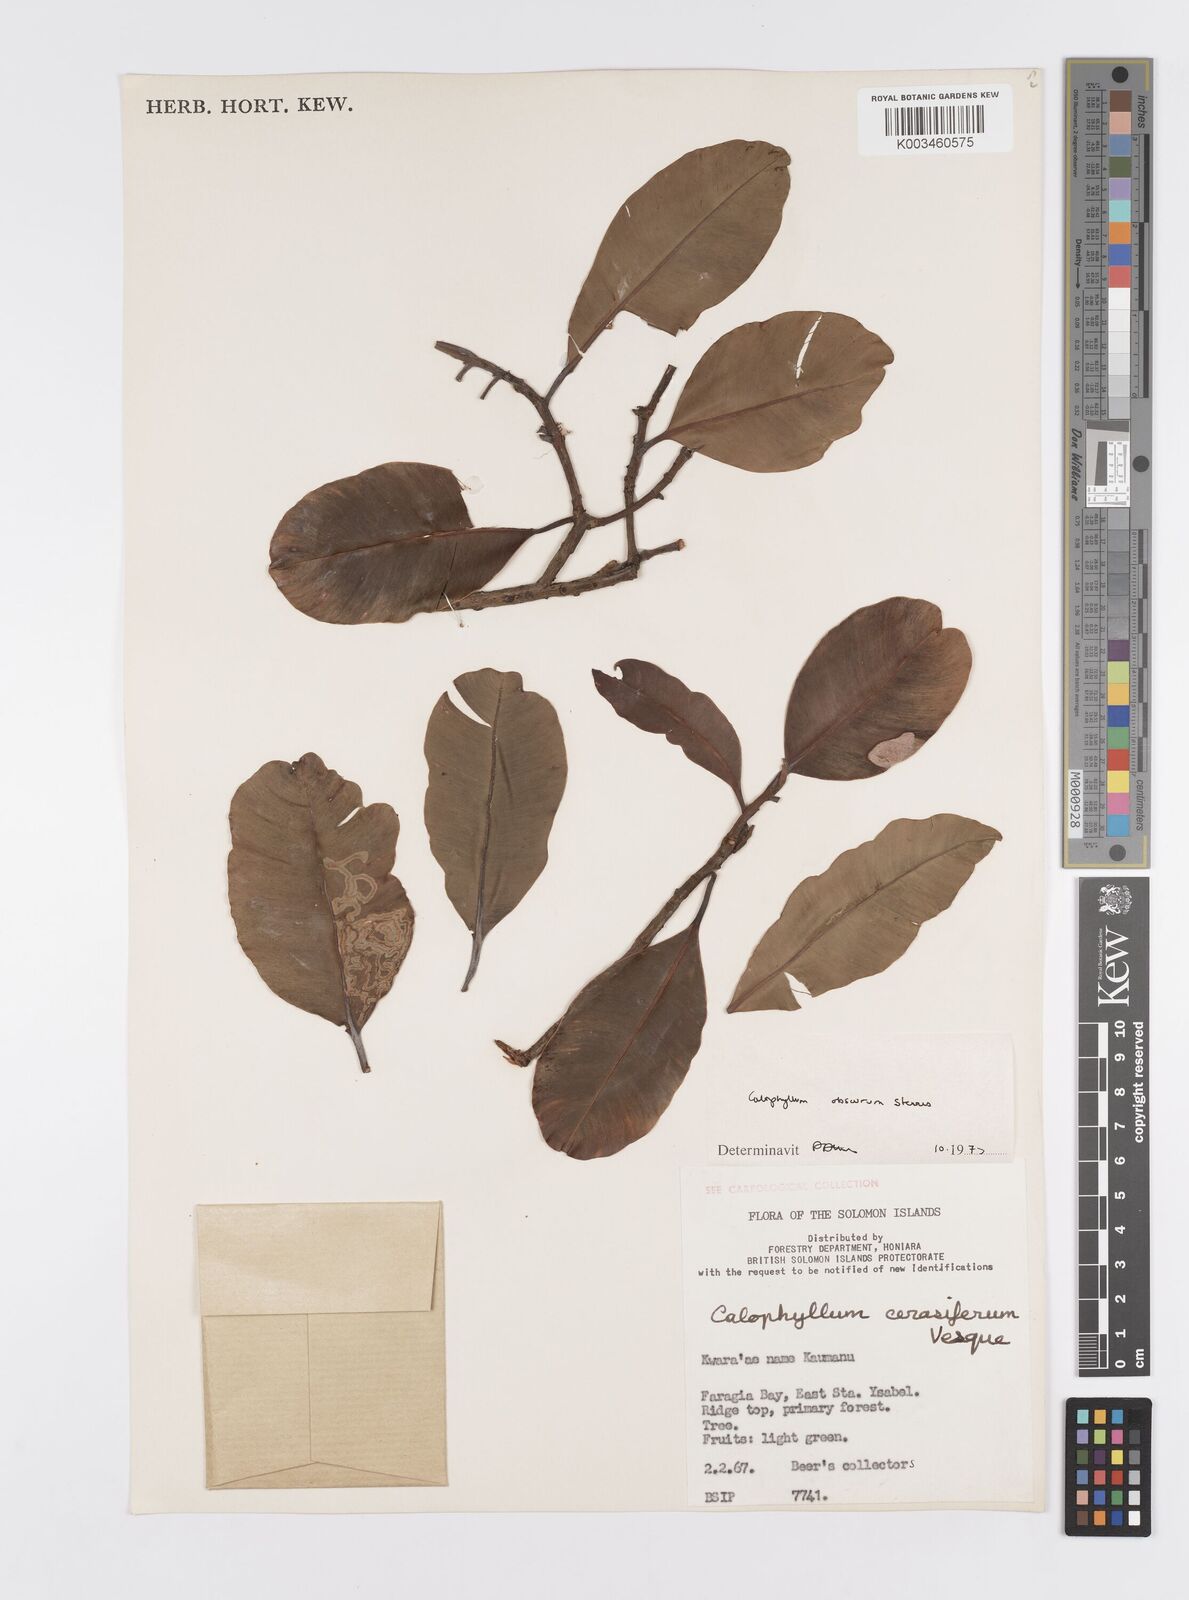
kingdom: Plantae
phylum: Tracheophyta
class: Magnoliopsida
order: Malpighiales
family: Calophyllaceae
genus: Calophyllum
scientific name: Calophyllum obscurum
